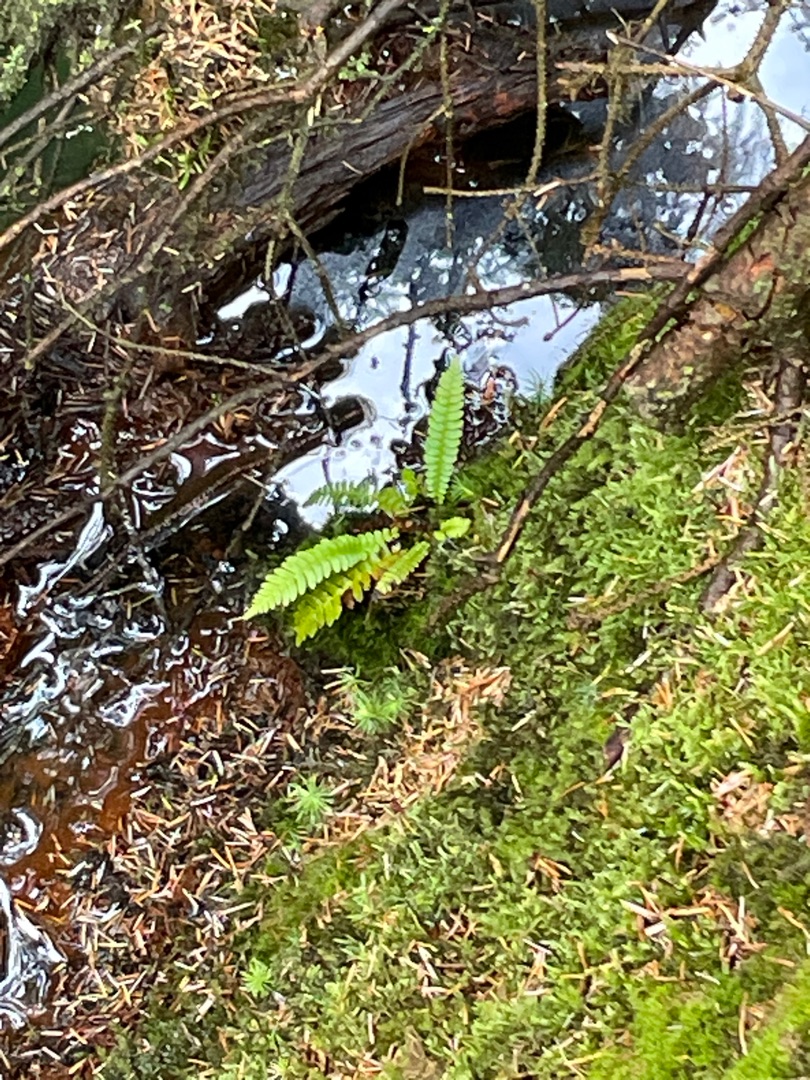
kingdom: Plantae
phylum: Tracheophyta
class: Polypodiopsida
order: Polypodiales
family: Blechnaceae
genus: Struthiopteris
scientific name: Struthiopteris spicant
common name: Kambregne
